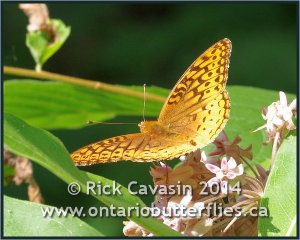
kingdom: Animalia
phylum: Arthropoda
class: Insecta
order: Lepidoptera
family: Nymphalidae
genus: Speyeria
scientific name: Speyeria cybele
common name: Great Spangled Fritillary
